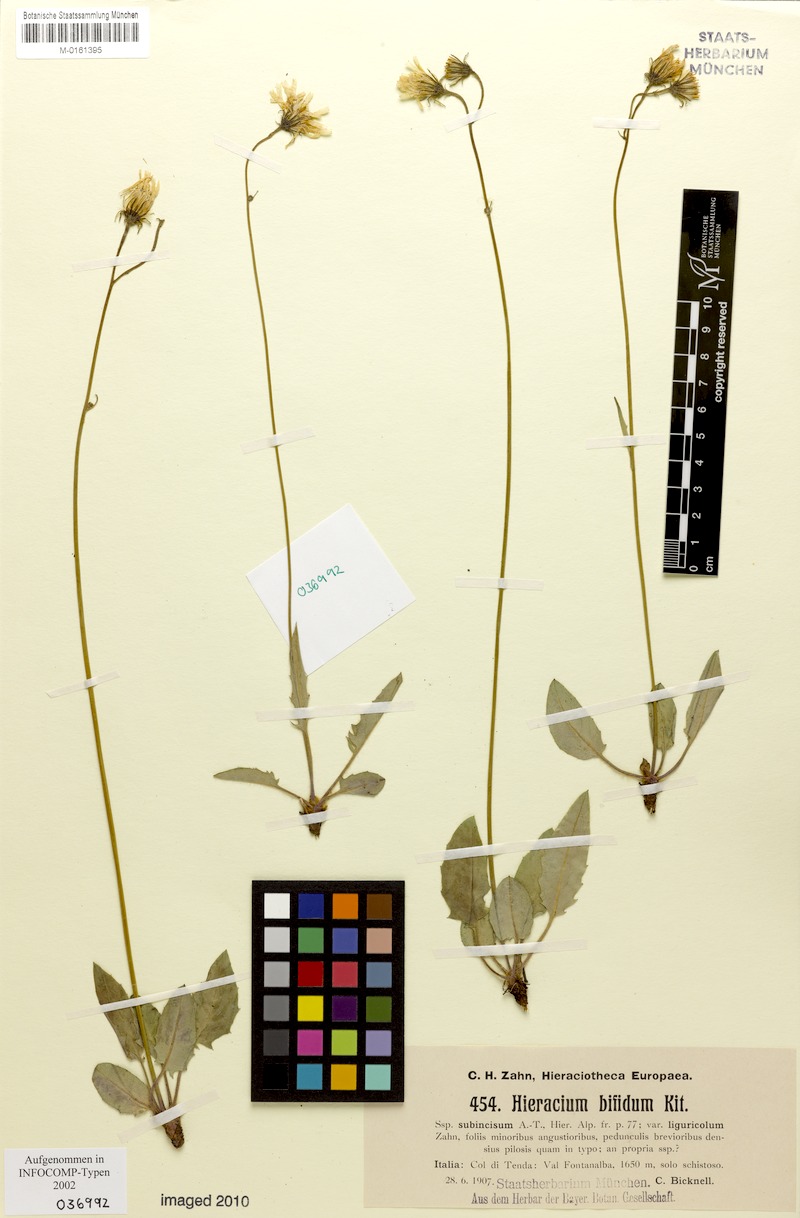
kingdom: Plantae
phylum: Tracheophyta
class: Magnoliopsida
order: Asterales
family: Asteraceae
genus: Hieracium
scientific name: Hieracium caesioides
